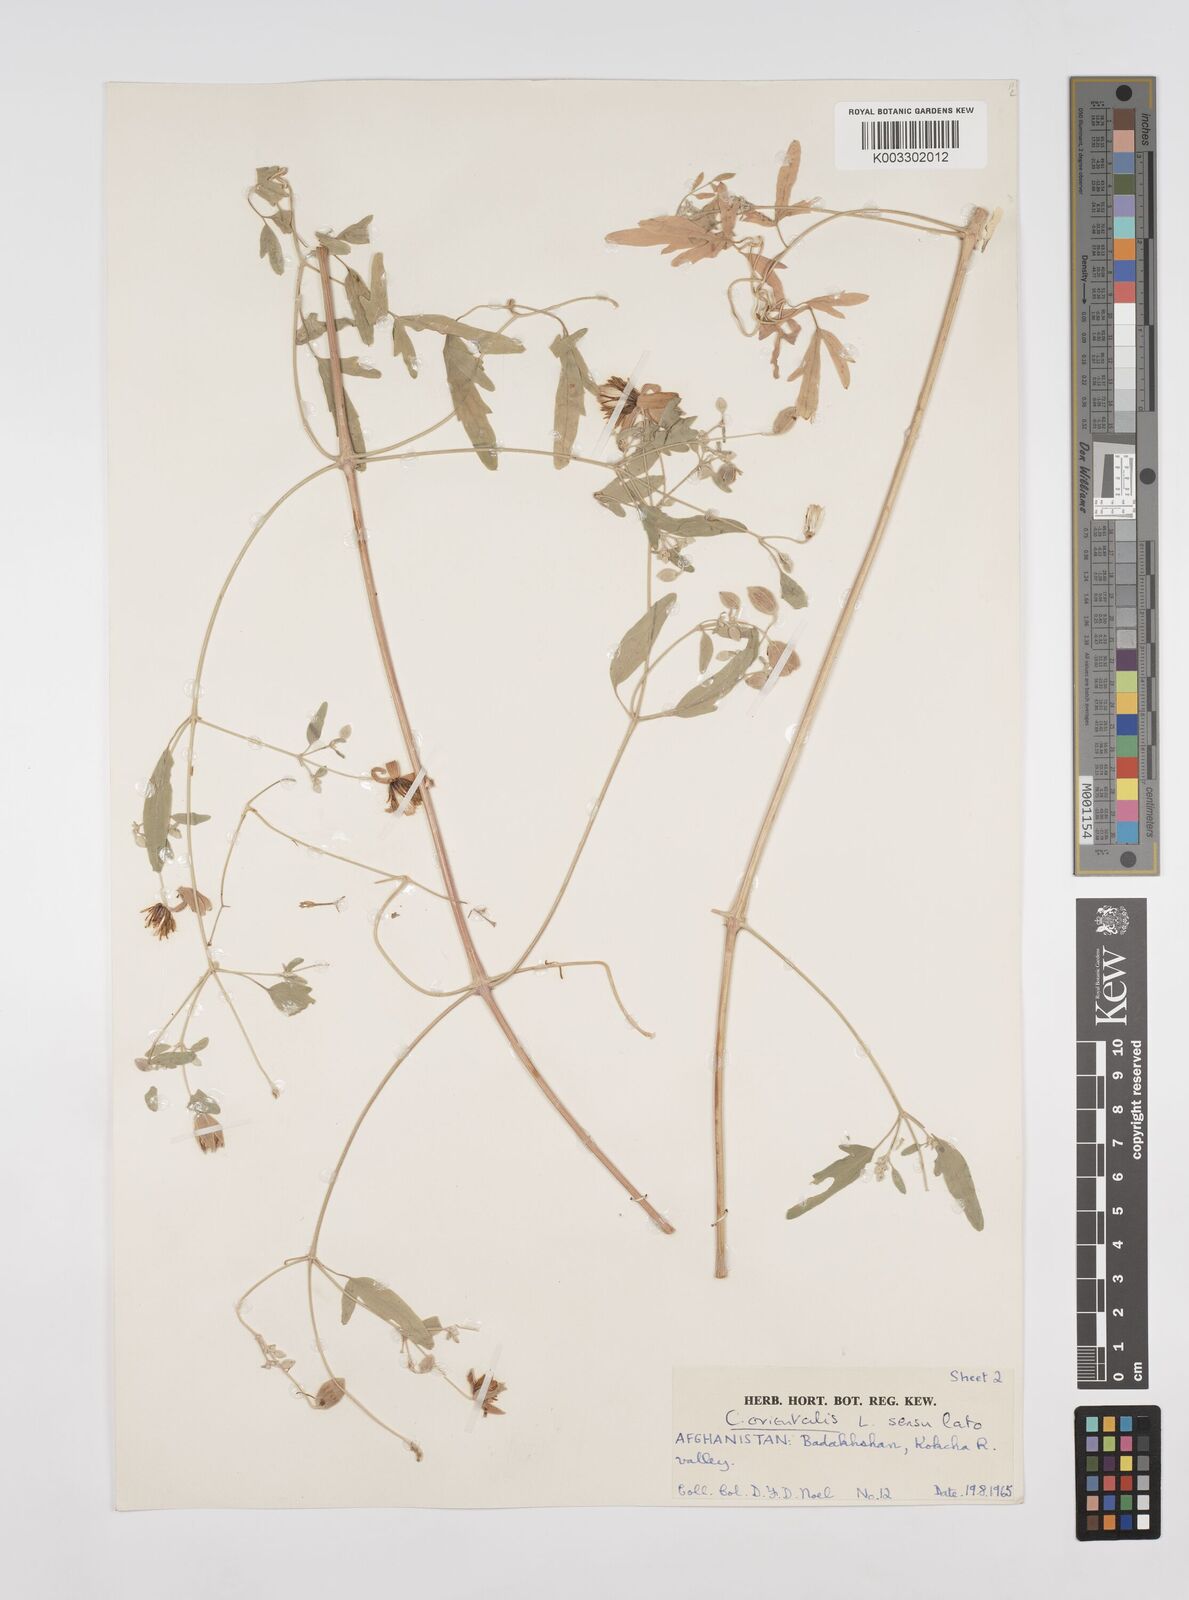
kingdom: Plantae
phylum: Tracheophyta
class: Magnoliopsida
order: Ranunculales
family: Ranunculaceae
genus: Clematis
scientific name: Clematis orientalis
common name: Oriental virgin's-bower
